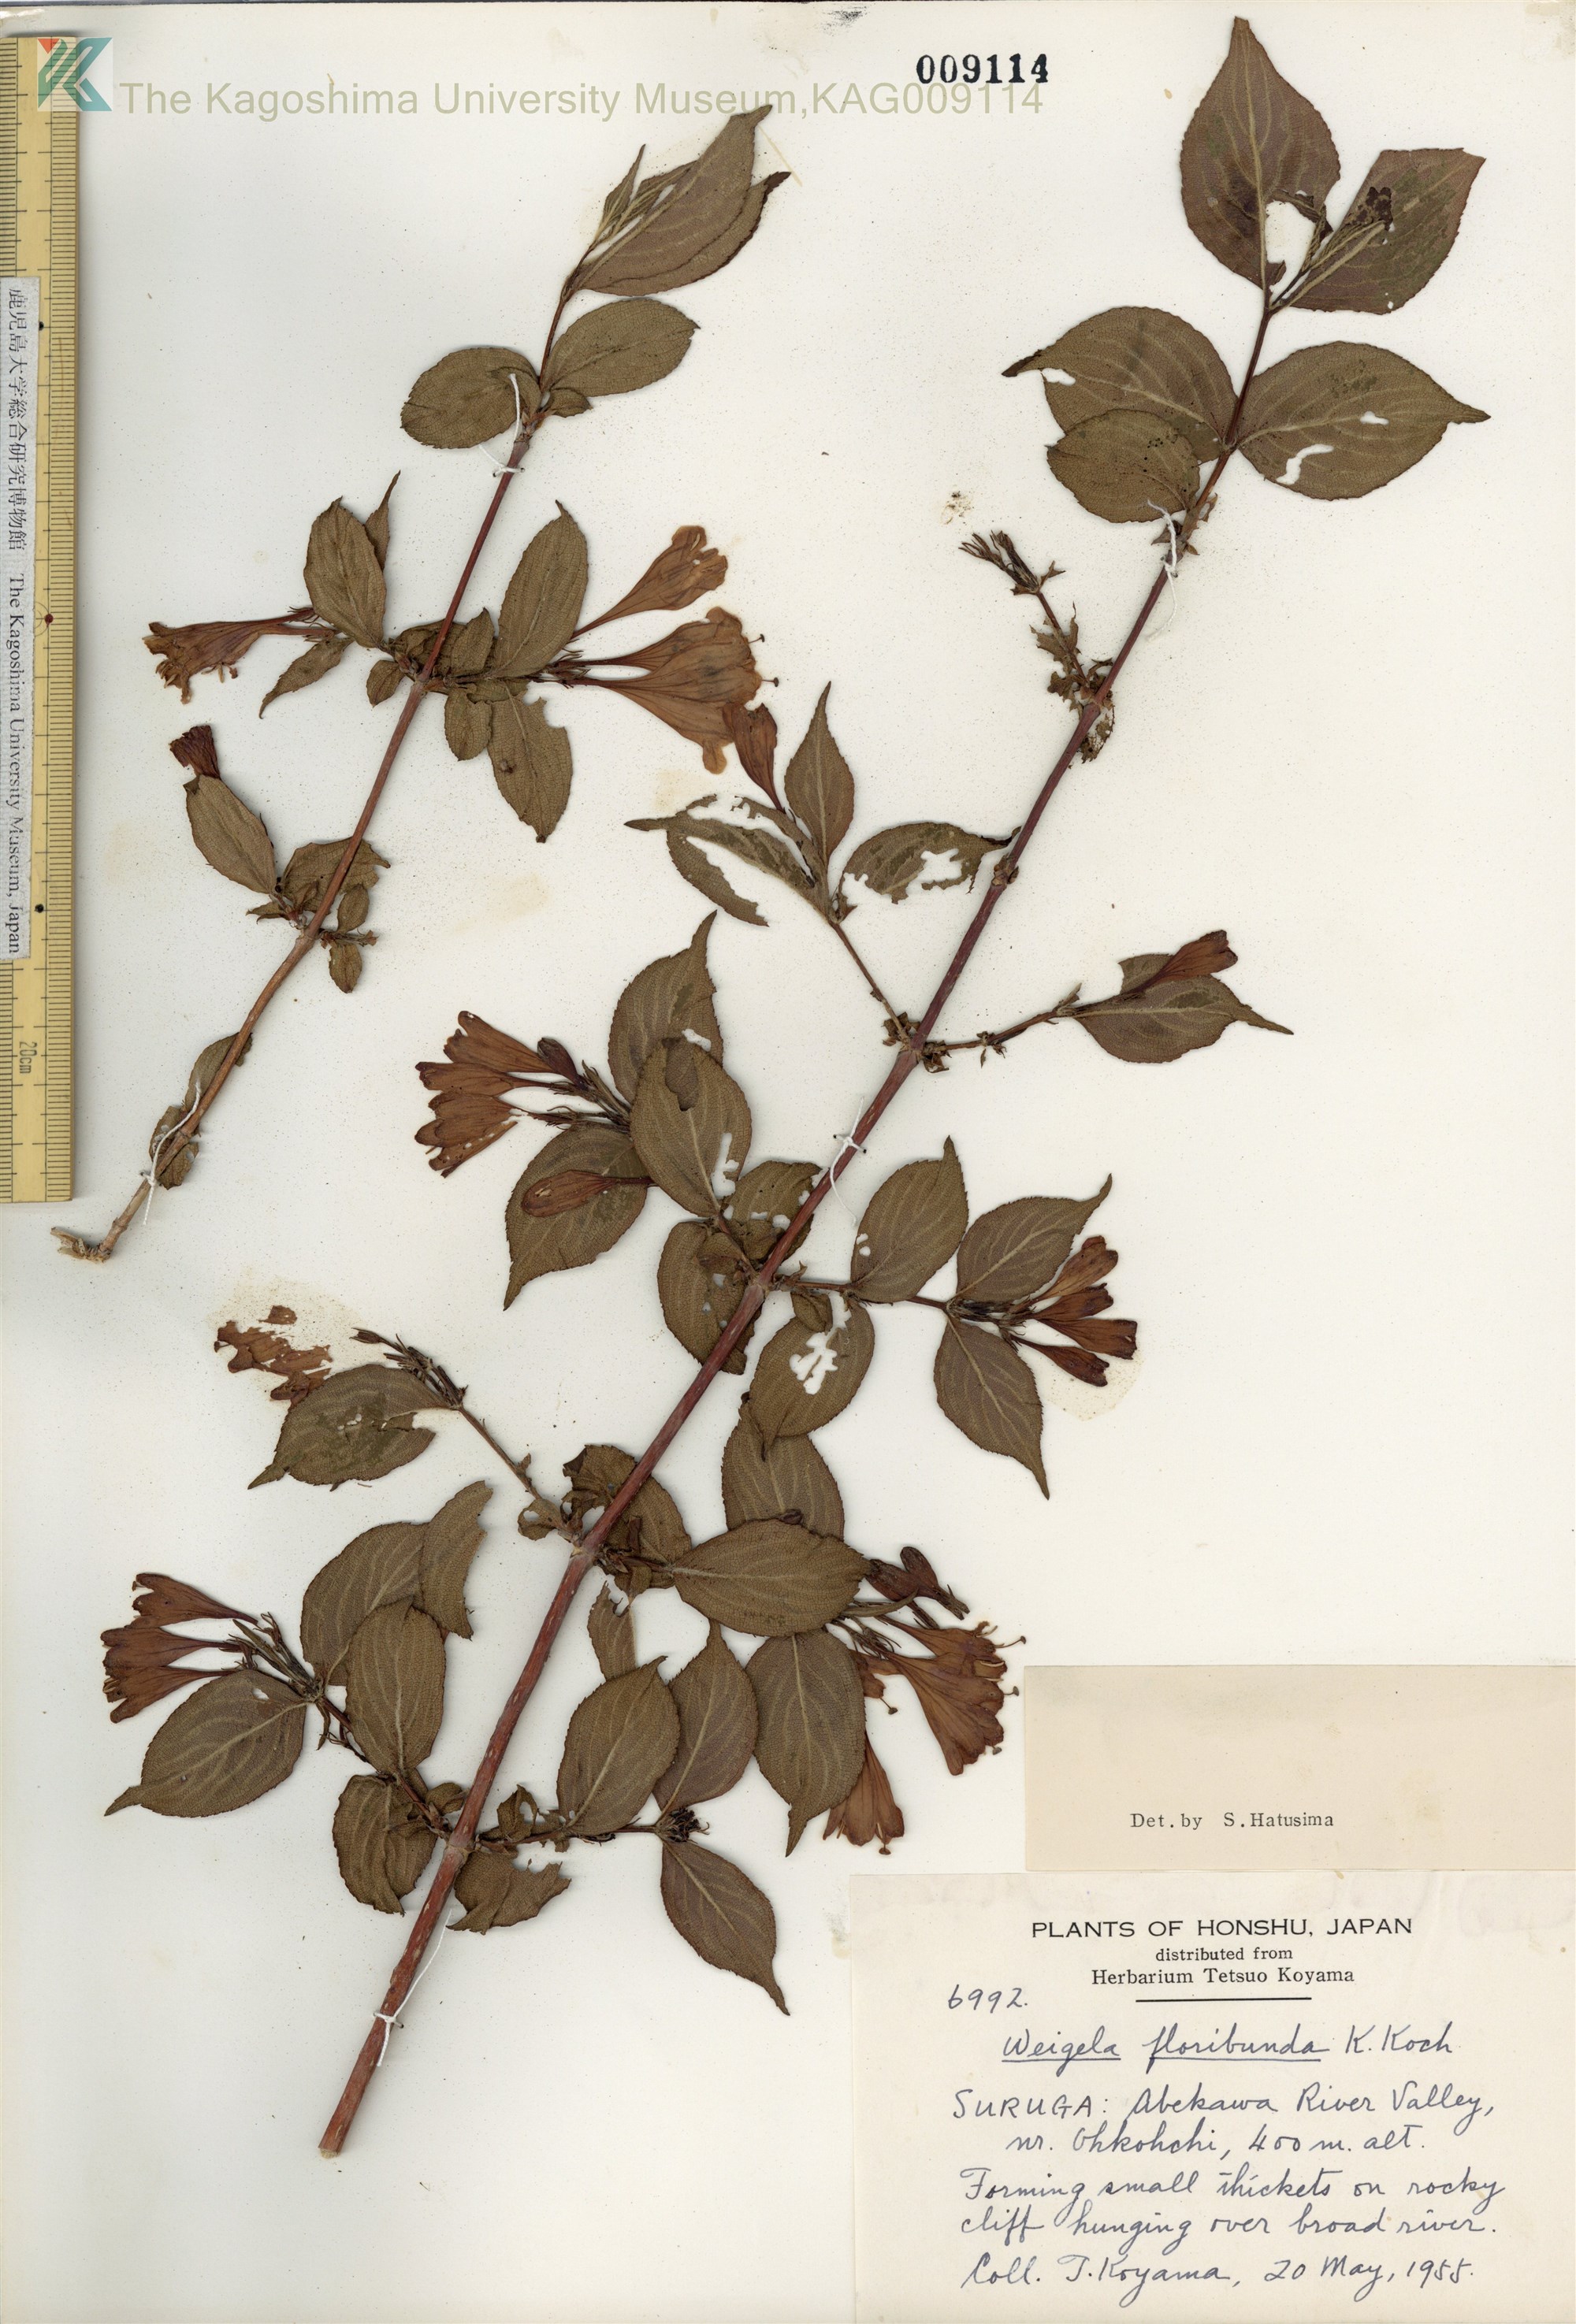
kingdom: Plantae
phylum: Tracheophyta
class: Magnoliopsida
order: Dipsacales
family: Caprifoliaceae
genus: Weigela
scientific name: Weigela decora
